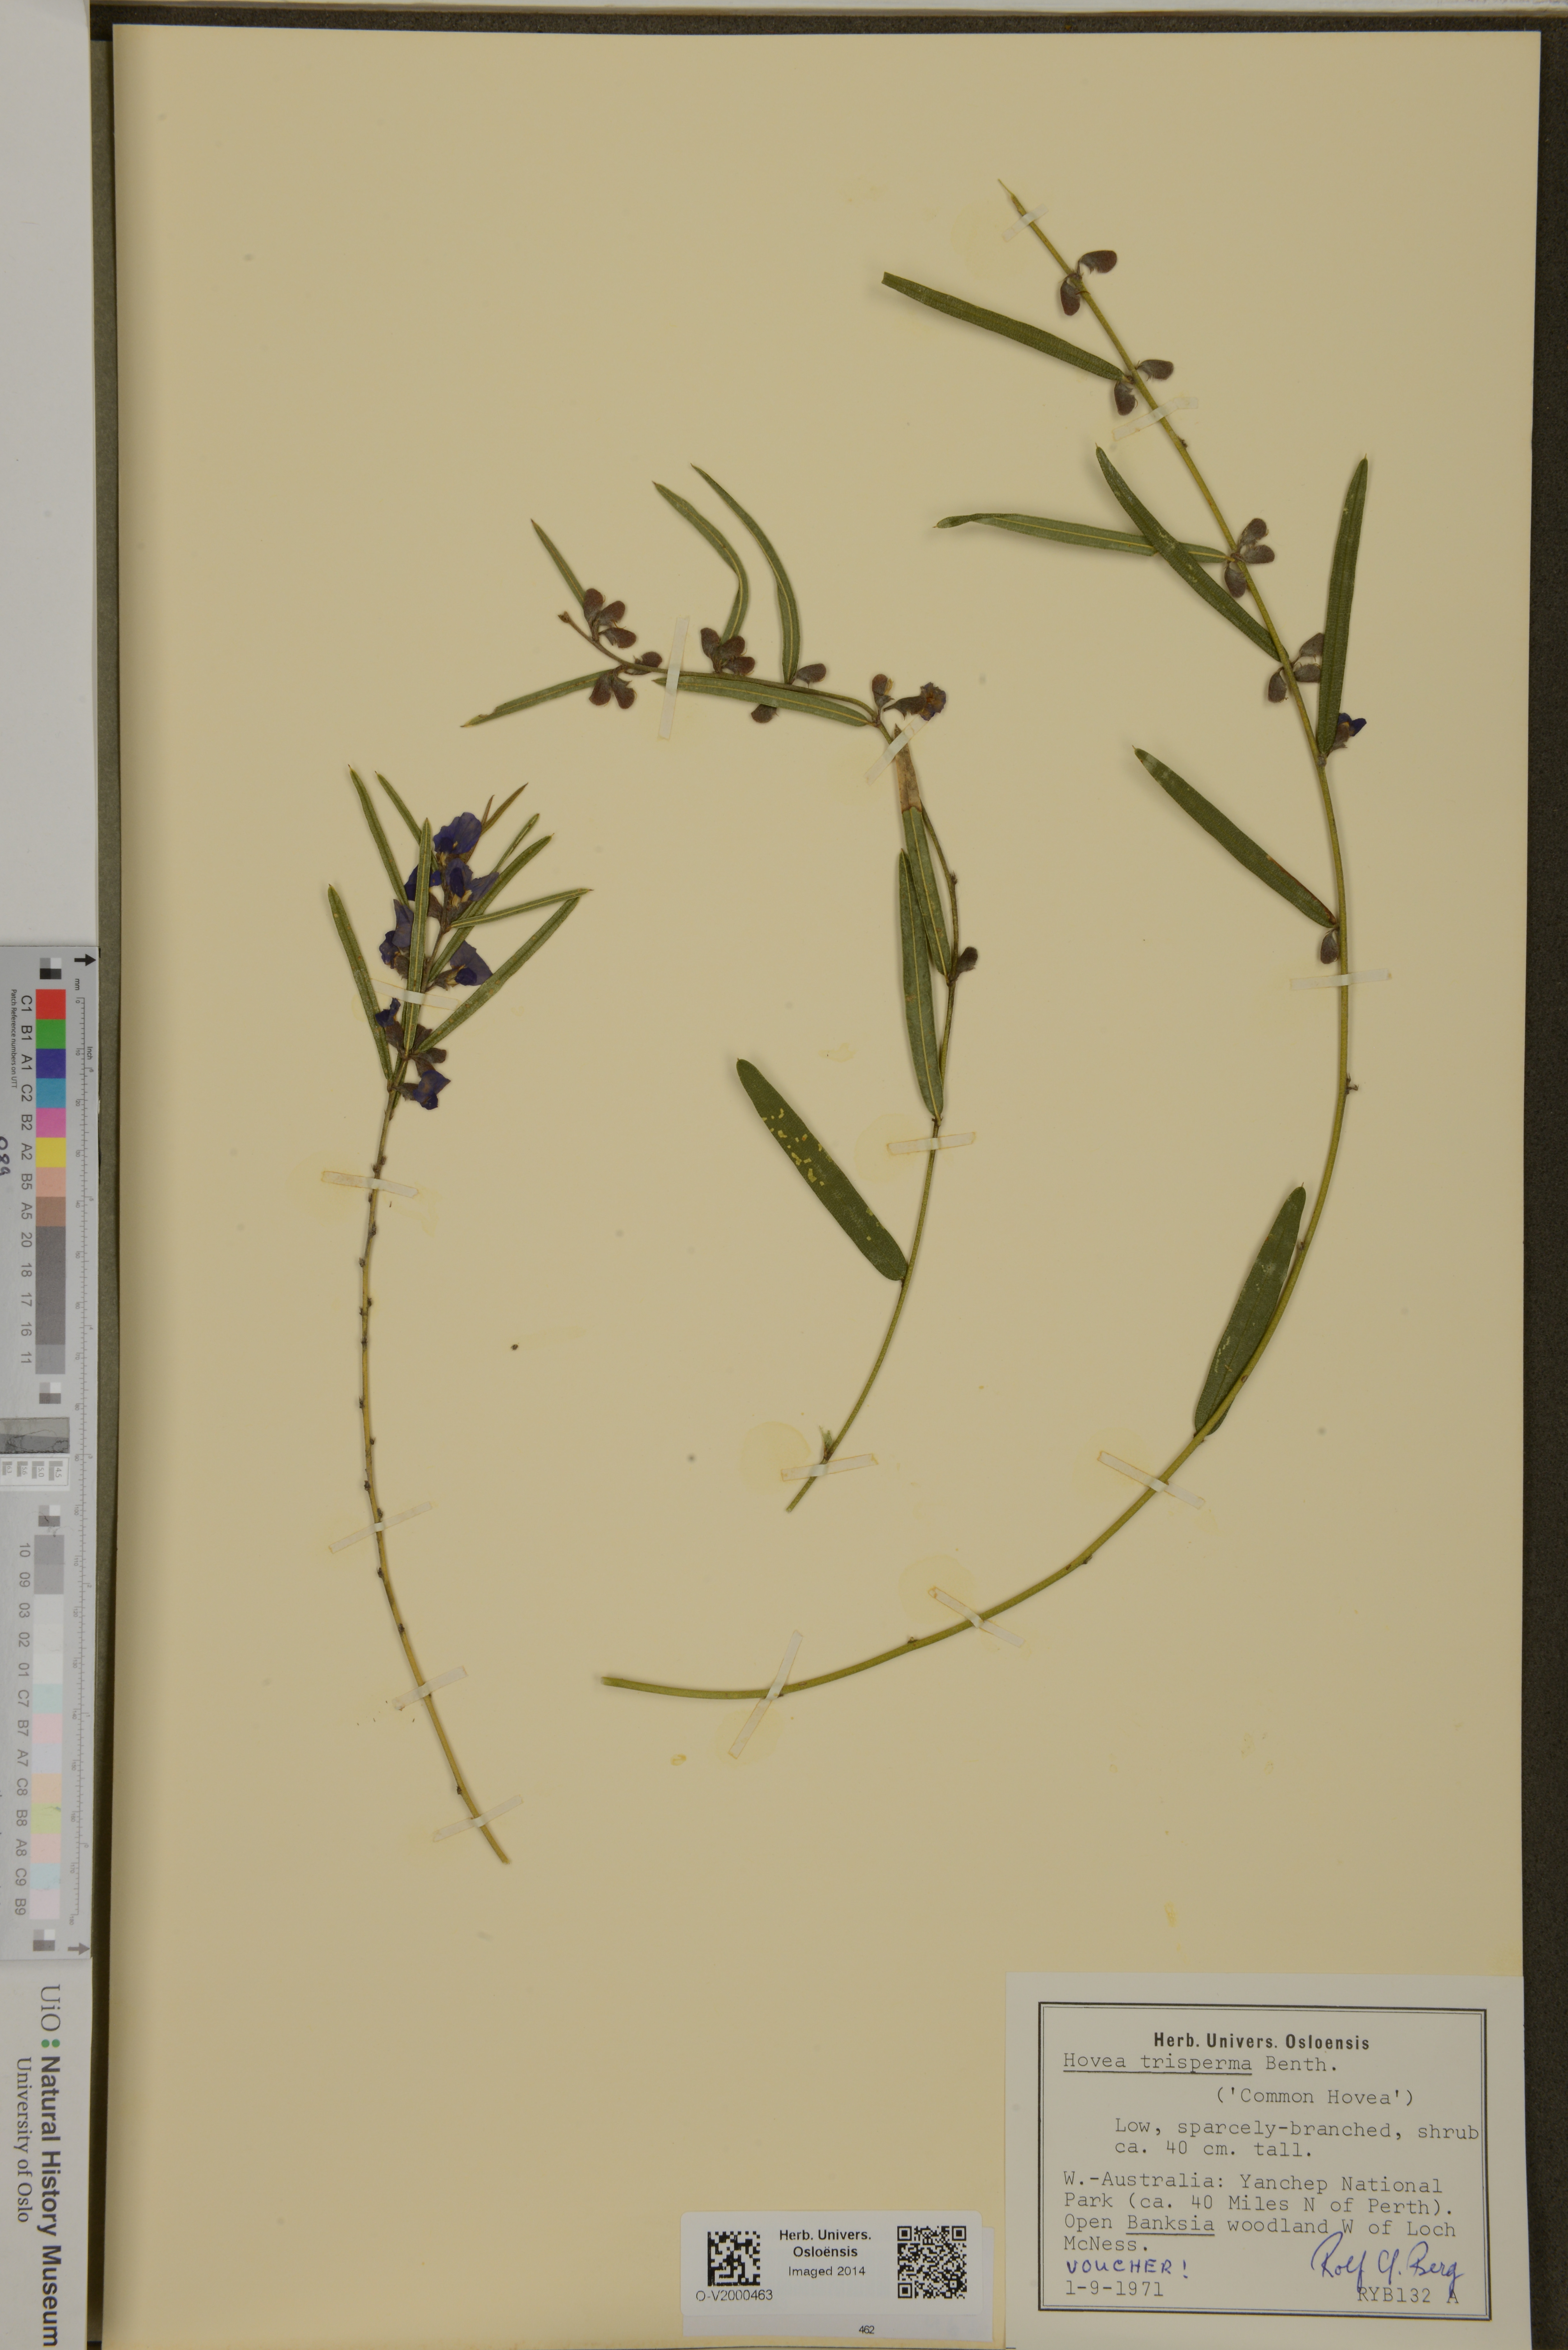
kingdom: Plantae
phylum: Tracheophyta
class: Magnoliopsida
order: Fabales
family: Fabaceae
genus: Hovea
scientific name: Hovea trisperma
